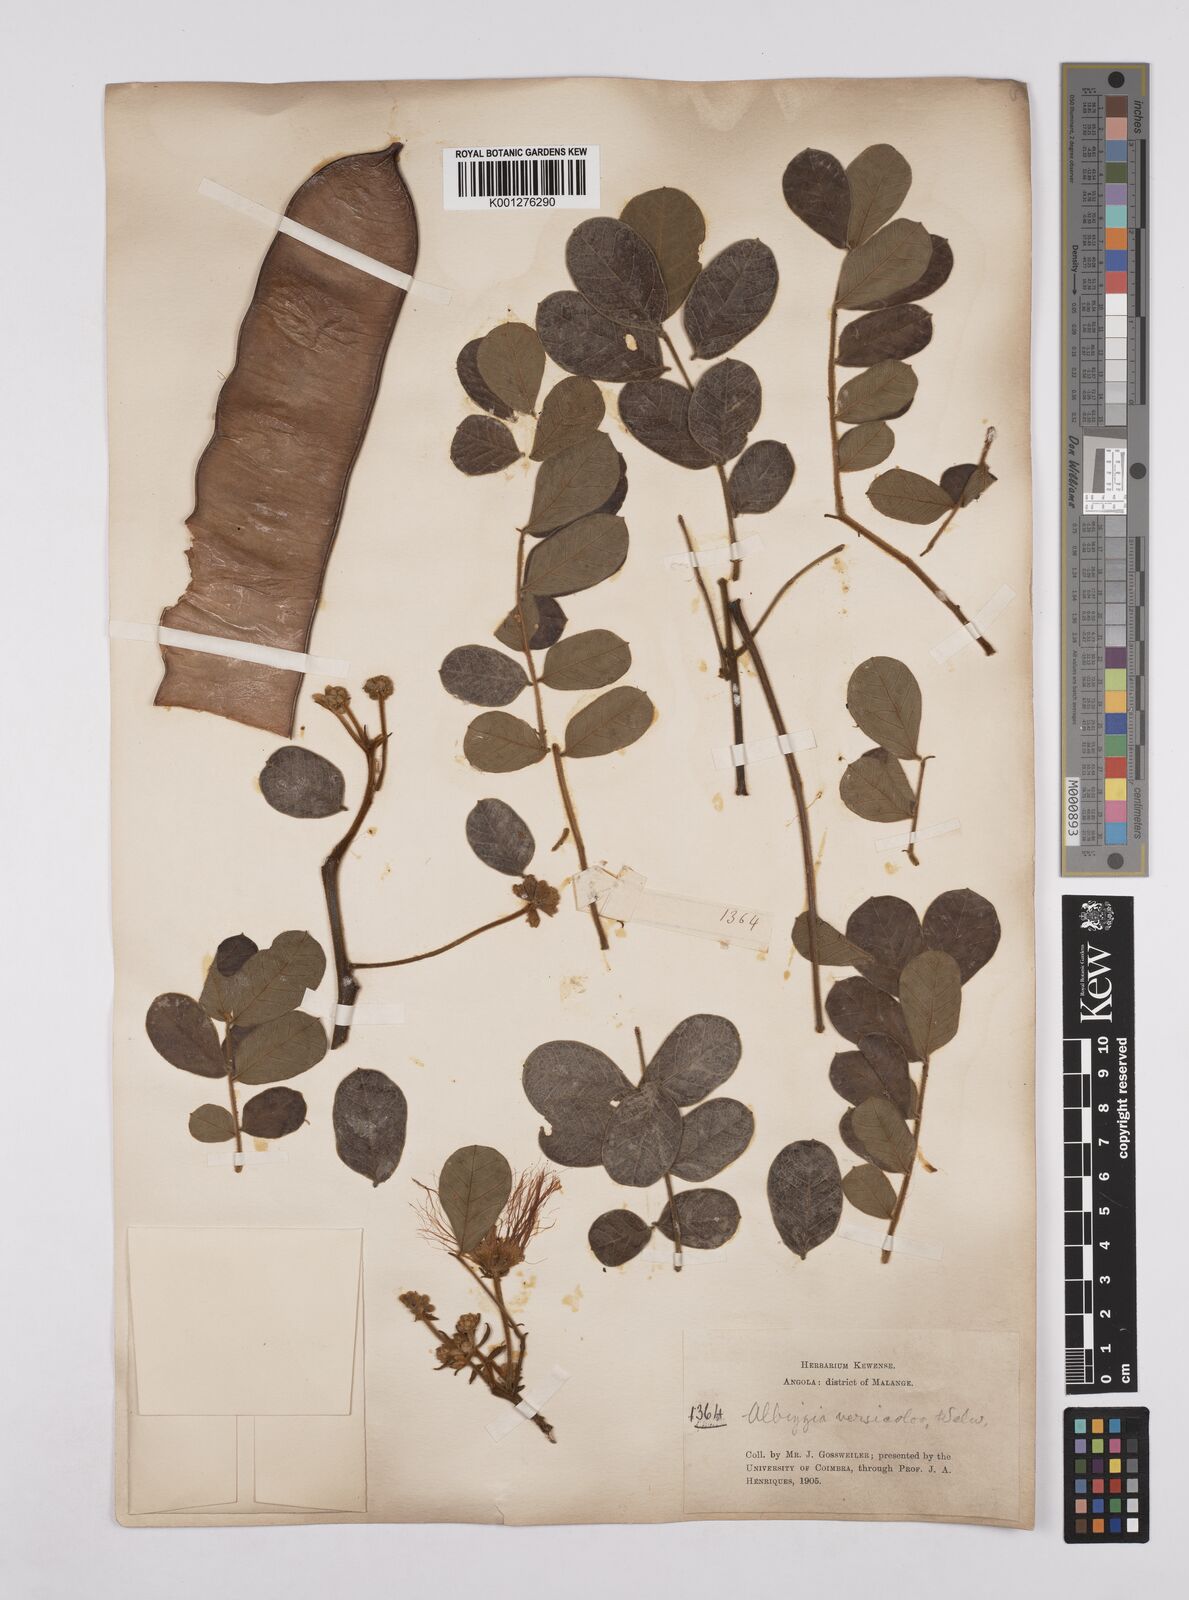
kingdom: Plantae
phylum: Tracheophyta
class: Magnoliopsida
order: Fabales
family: Fabaceae
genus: Albizia
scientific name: Albizia versicolor
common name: Poisonpod
